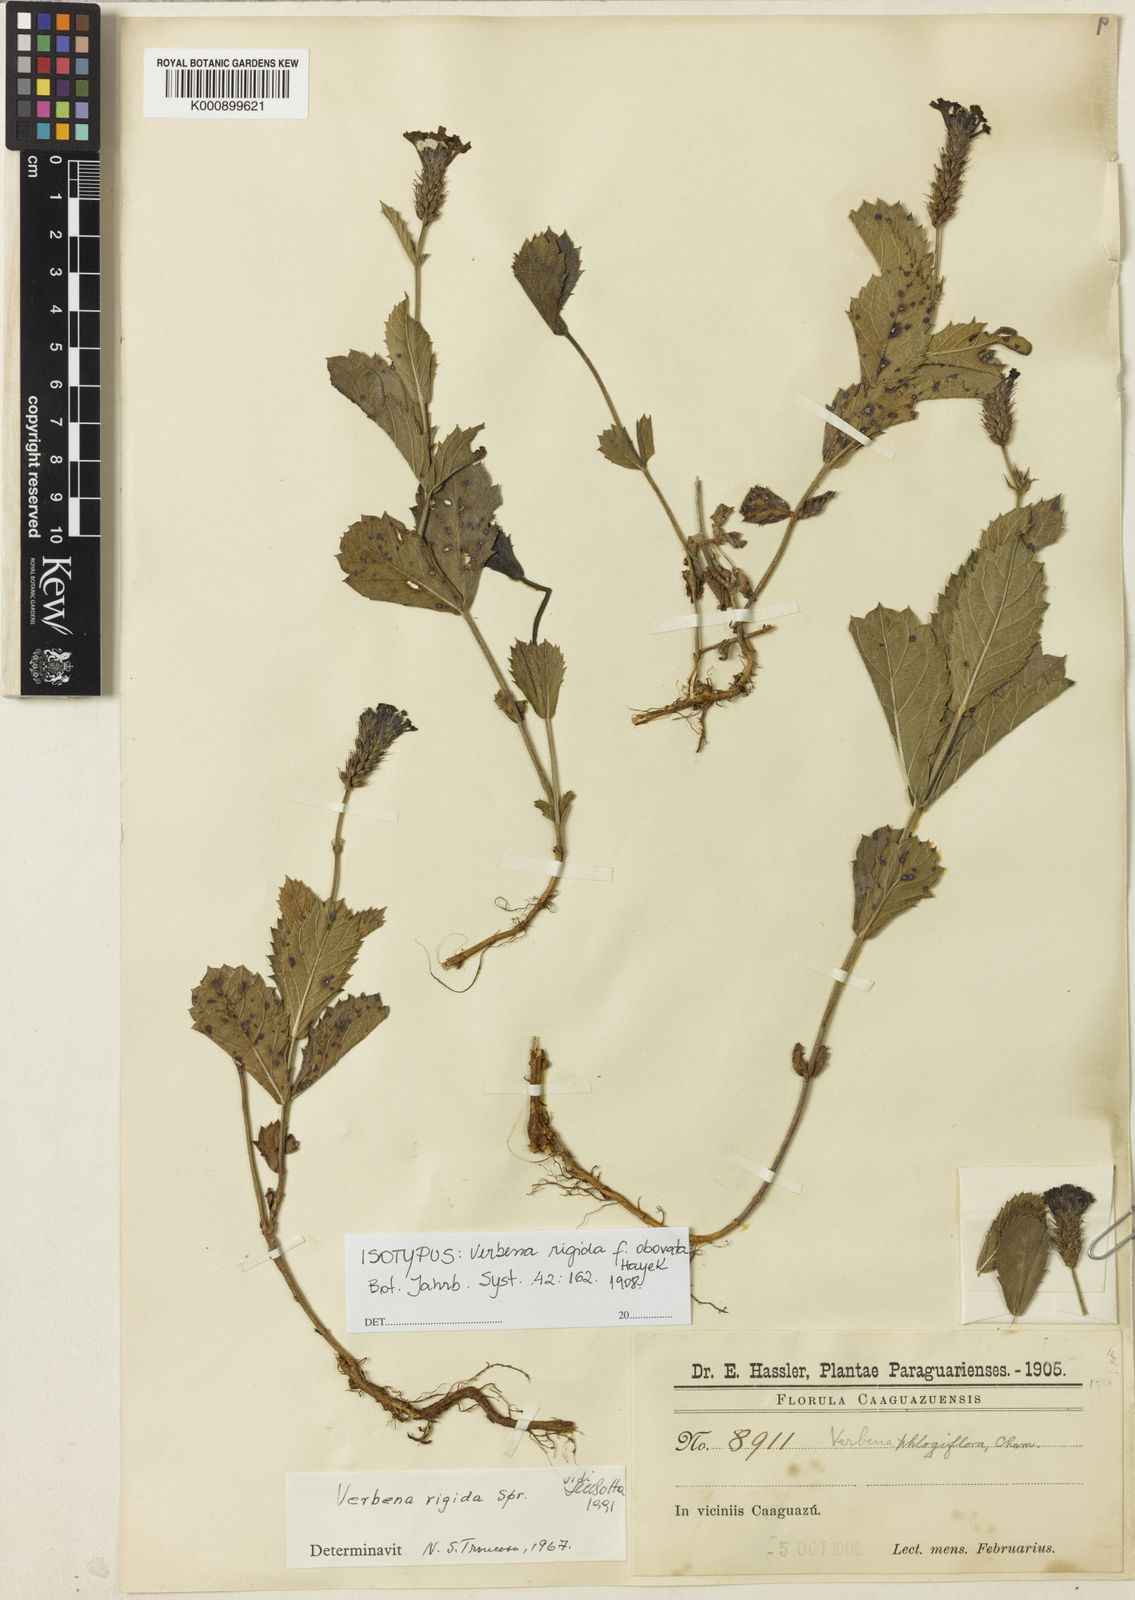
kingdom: Plantae
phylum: Tracheophyta
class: Magnoliopsida
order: Lamiales
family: Verbenaceae
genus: Verbena
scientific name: Verbena
